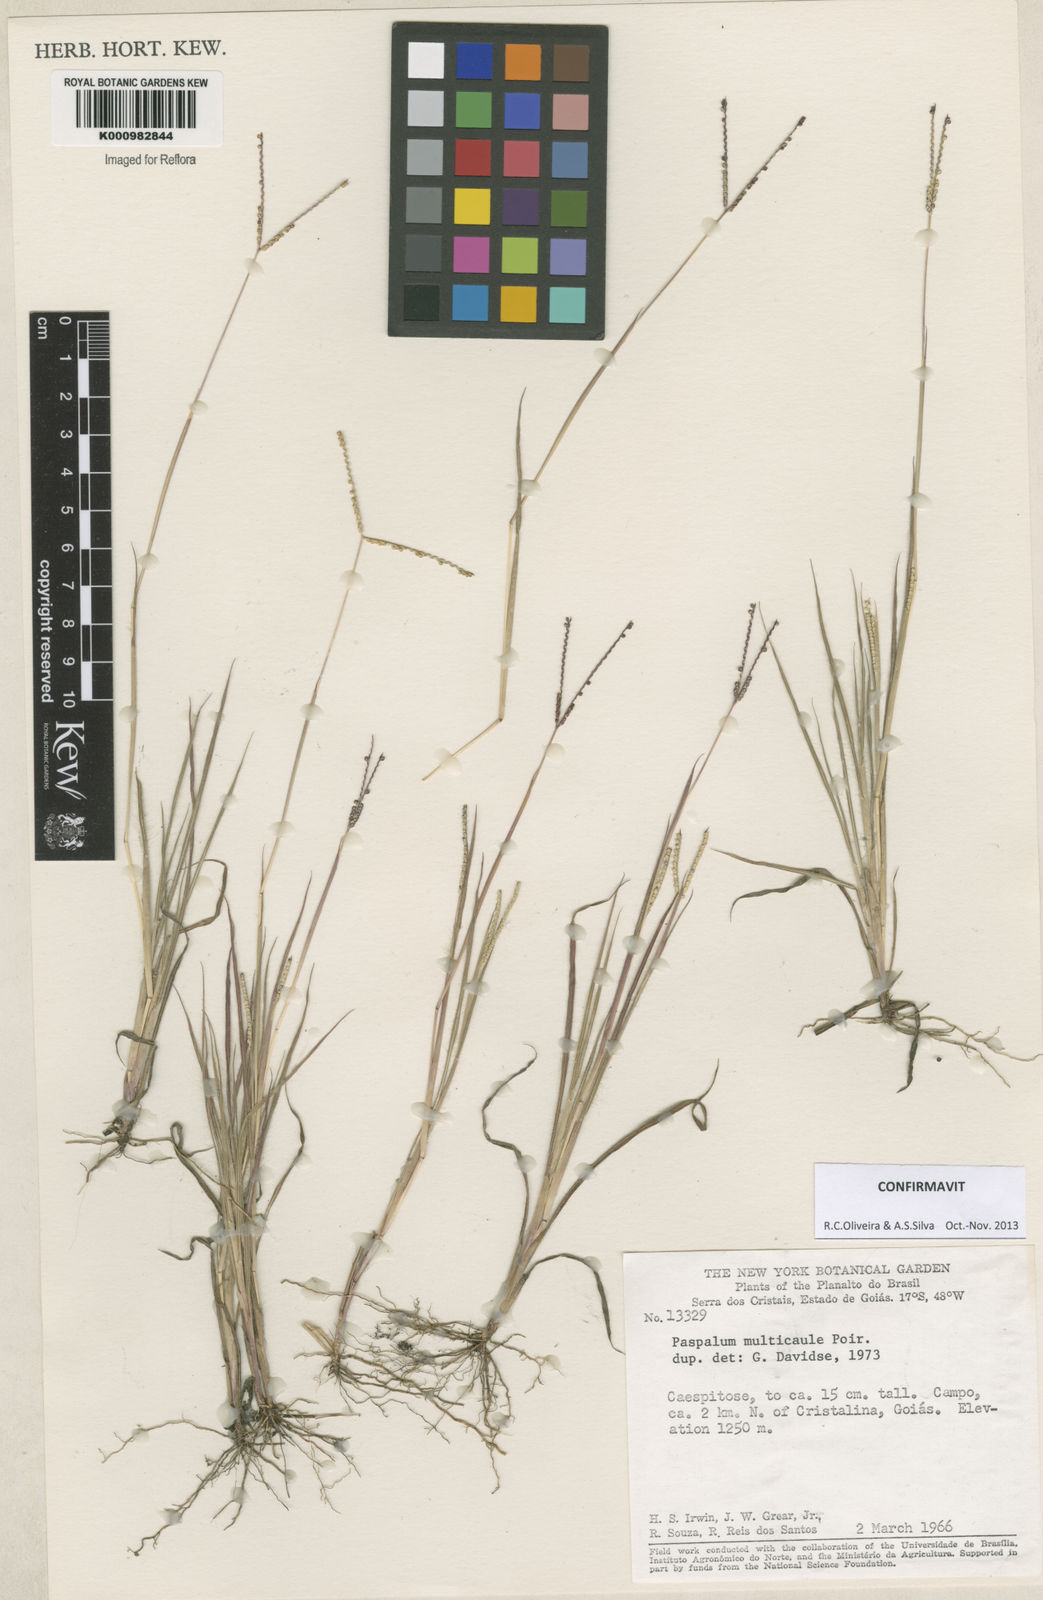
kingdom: Plantae
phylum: Tracheophyta
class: Liliopsida
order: Poales
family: Poaceae
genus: Paspalum
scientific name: Paspalum multicaule
